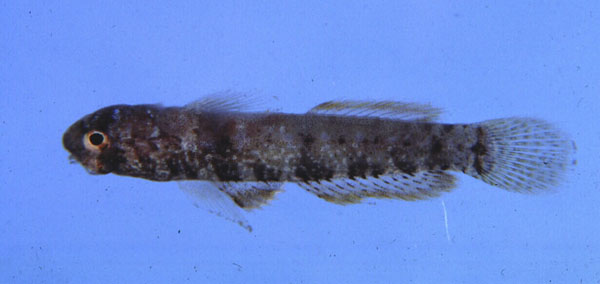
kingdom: Animalia
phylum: Chordata
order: Perciformes
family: Gobiidae
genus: Hetereleotris
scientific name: Hetereleotris nebulofasciata
